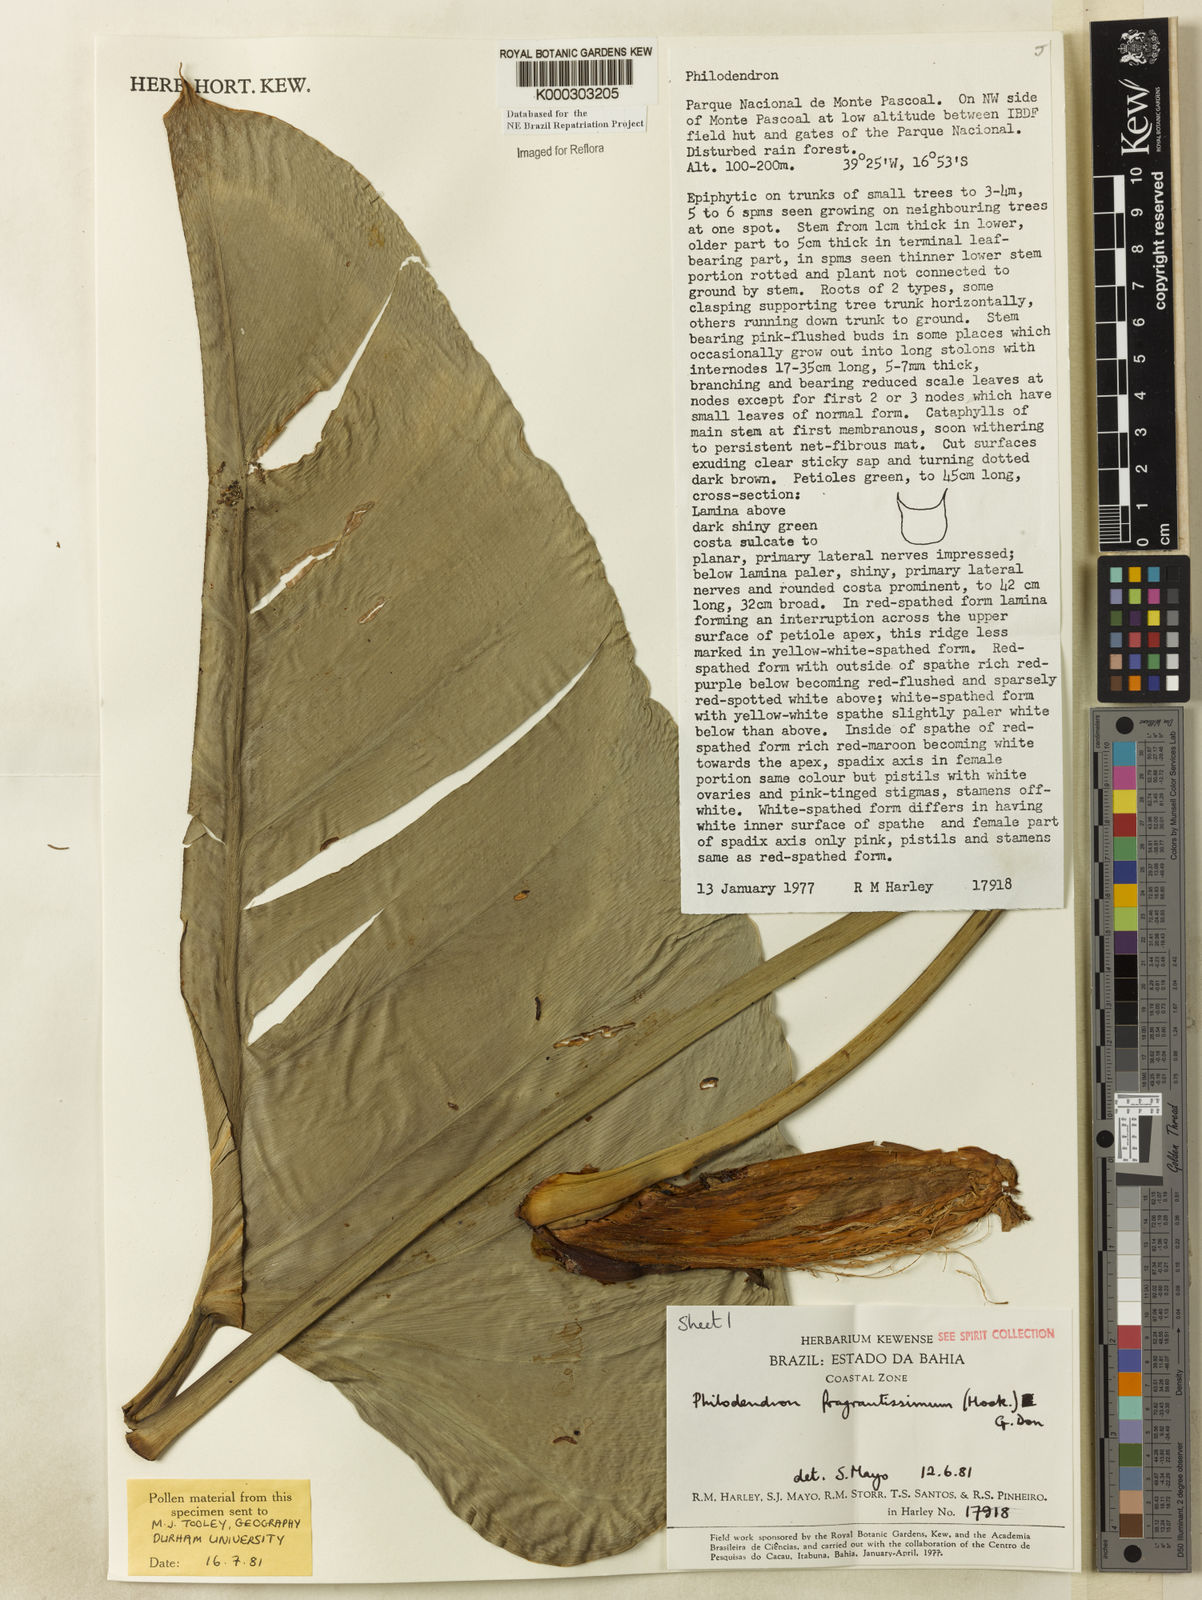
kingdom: Plantae
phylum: Tracheophyta
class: Liliopsida
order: Alismatales
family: Araceae
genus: Philodendron
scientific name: Philodendron fragrantissimum
